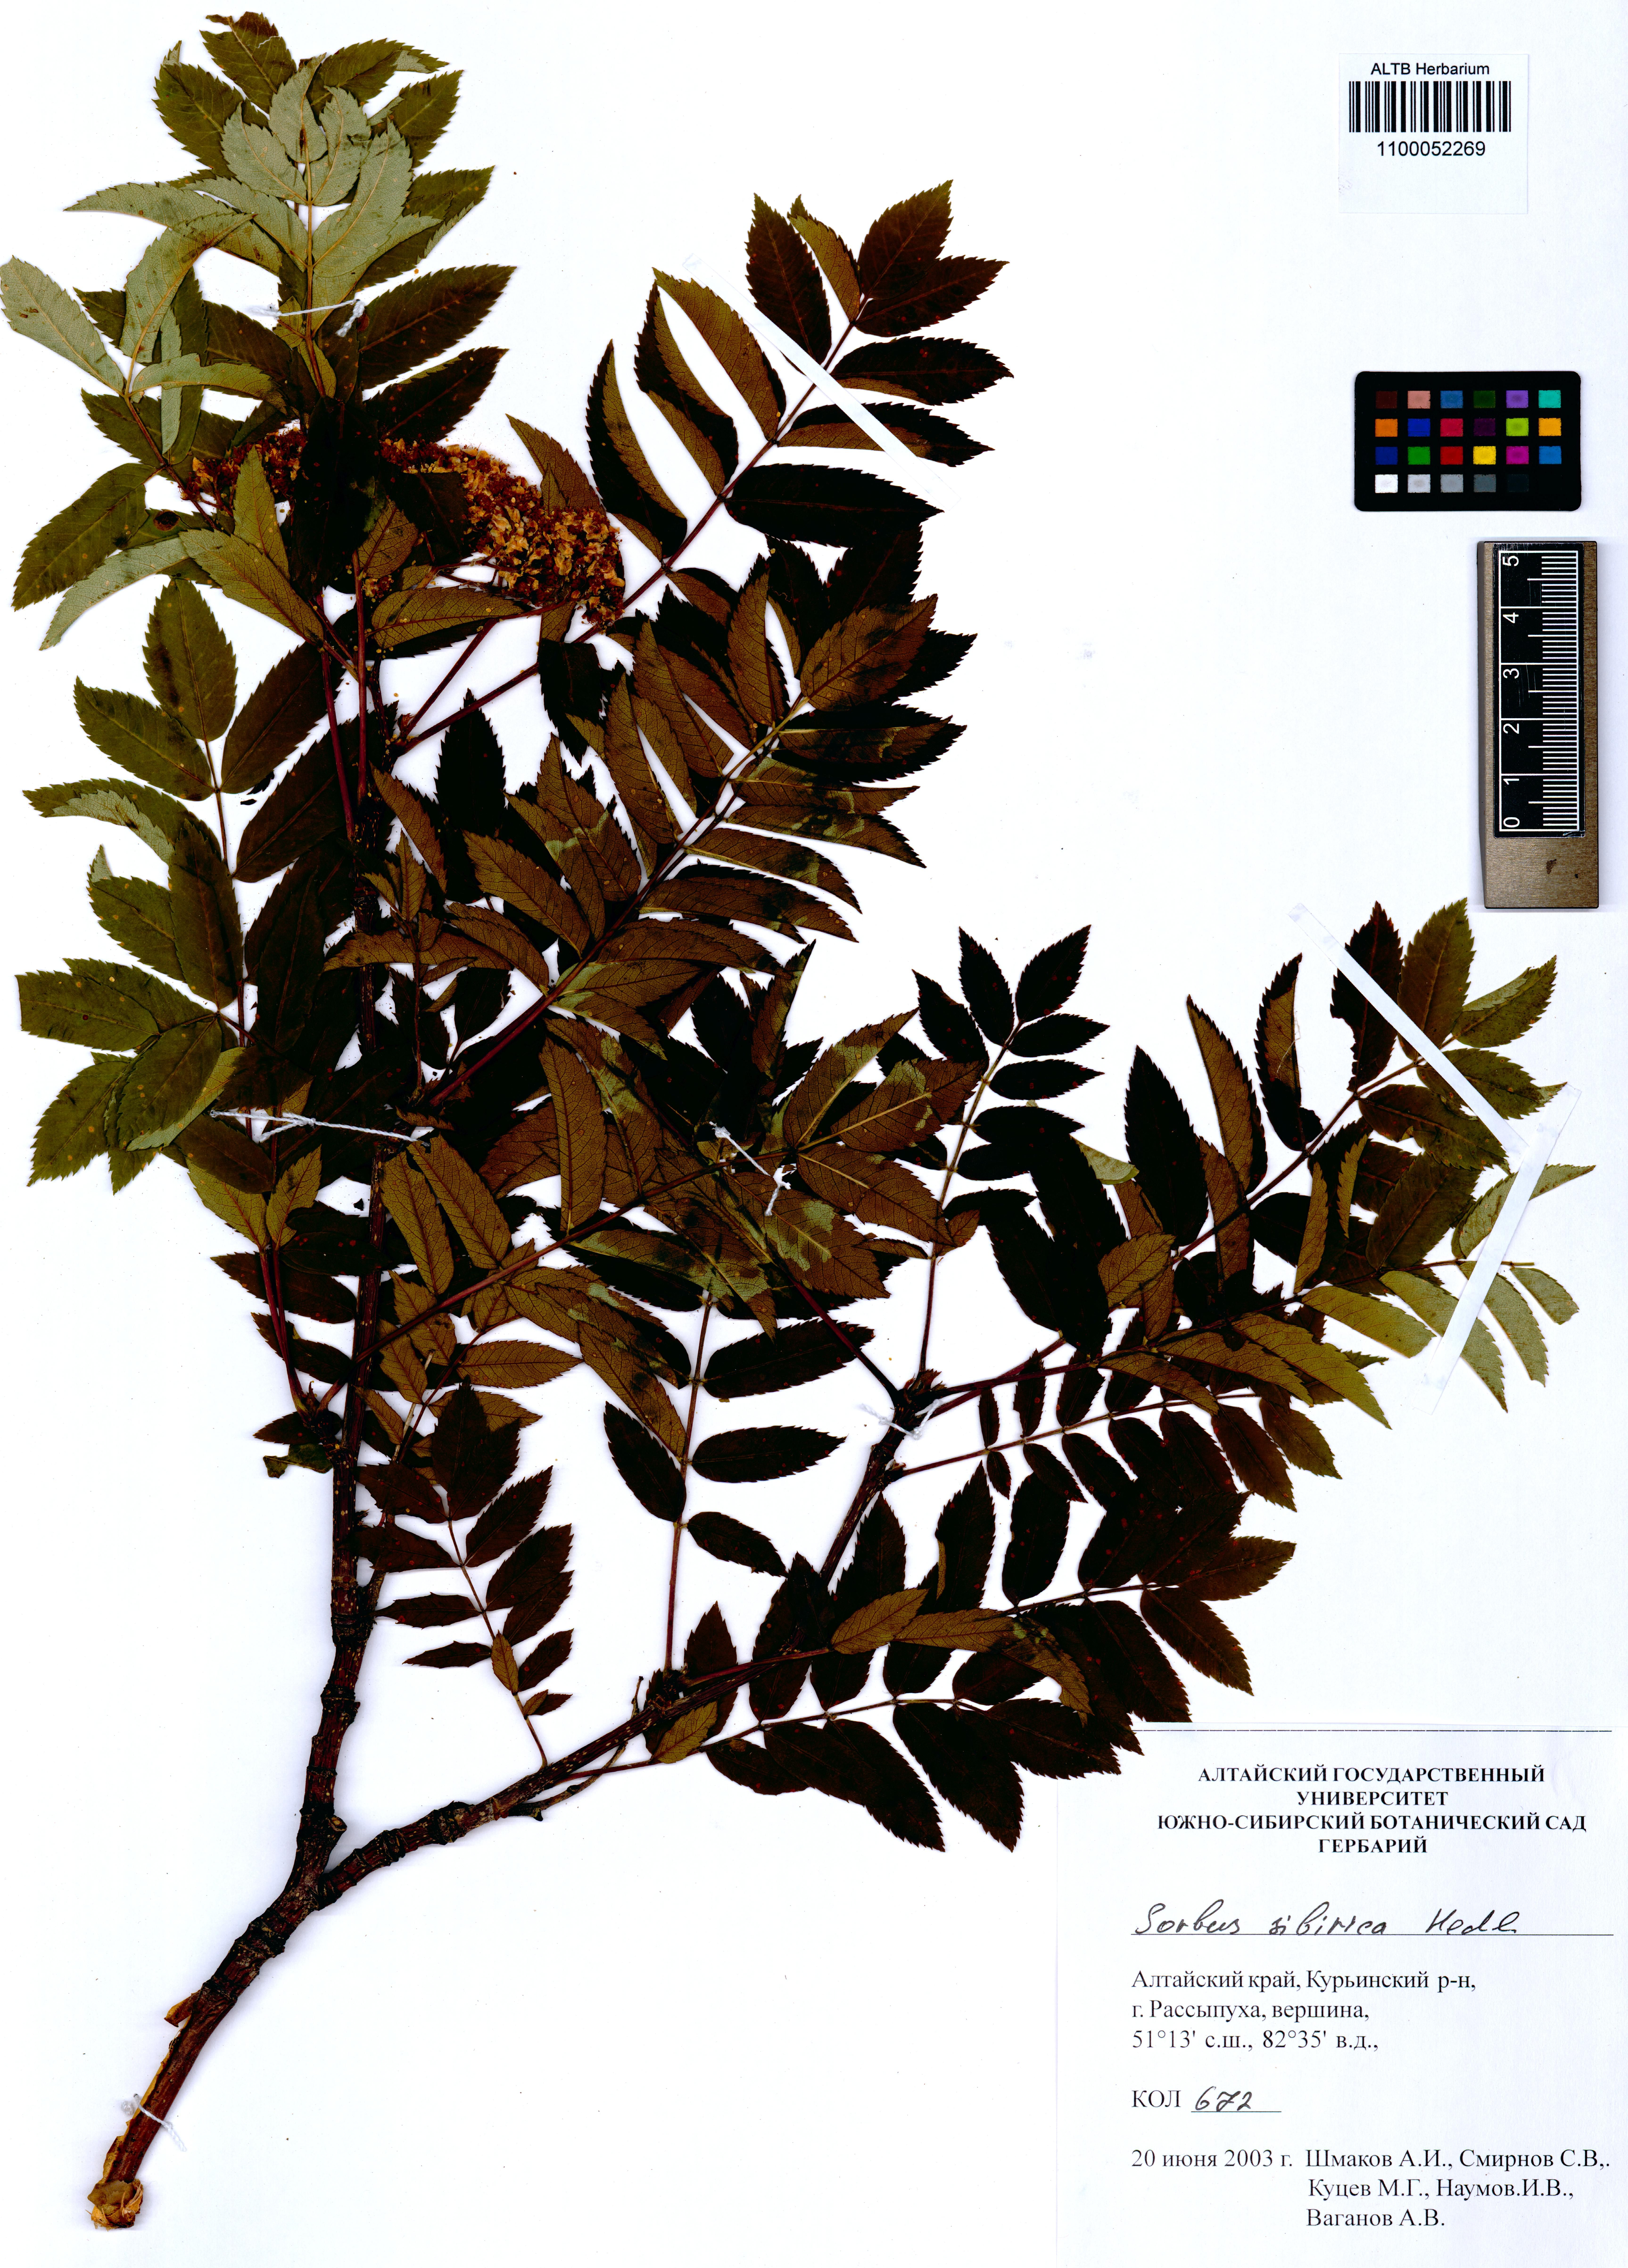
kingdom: Plantae
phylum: Tracheophyta
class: Magnoliopsida
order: Rosales
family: Rosaceae
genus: Sorbus
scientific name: Sorbus aucuparia
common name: Rowan
